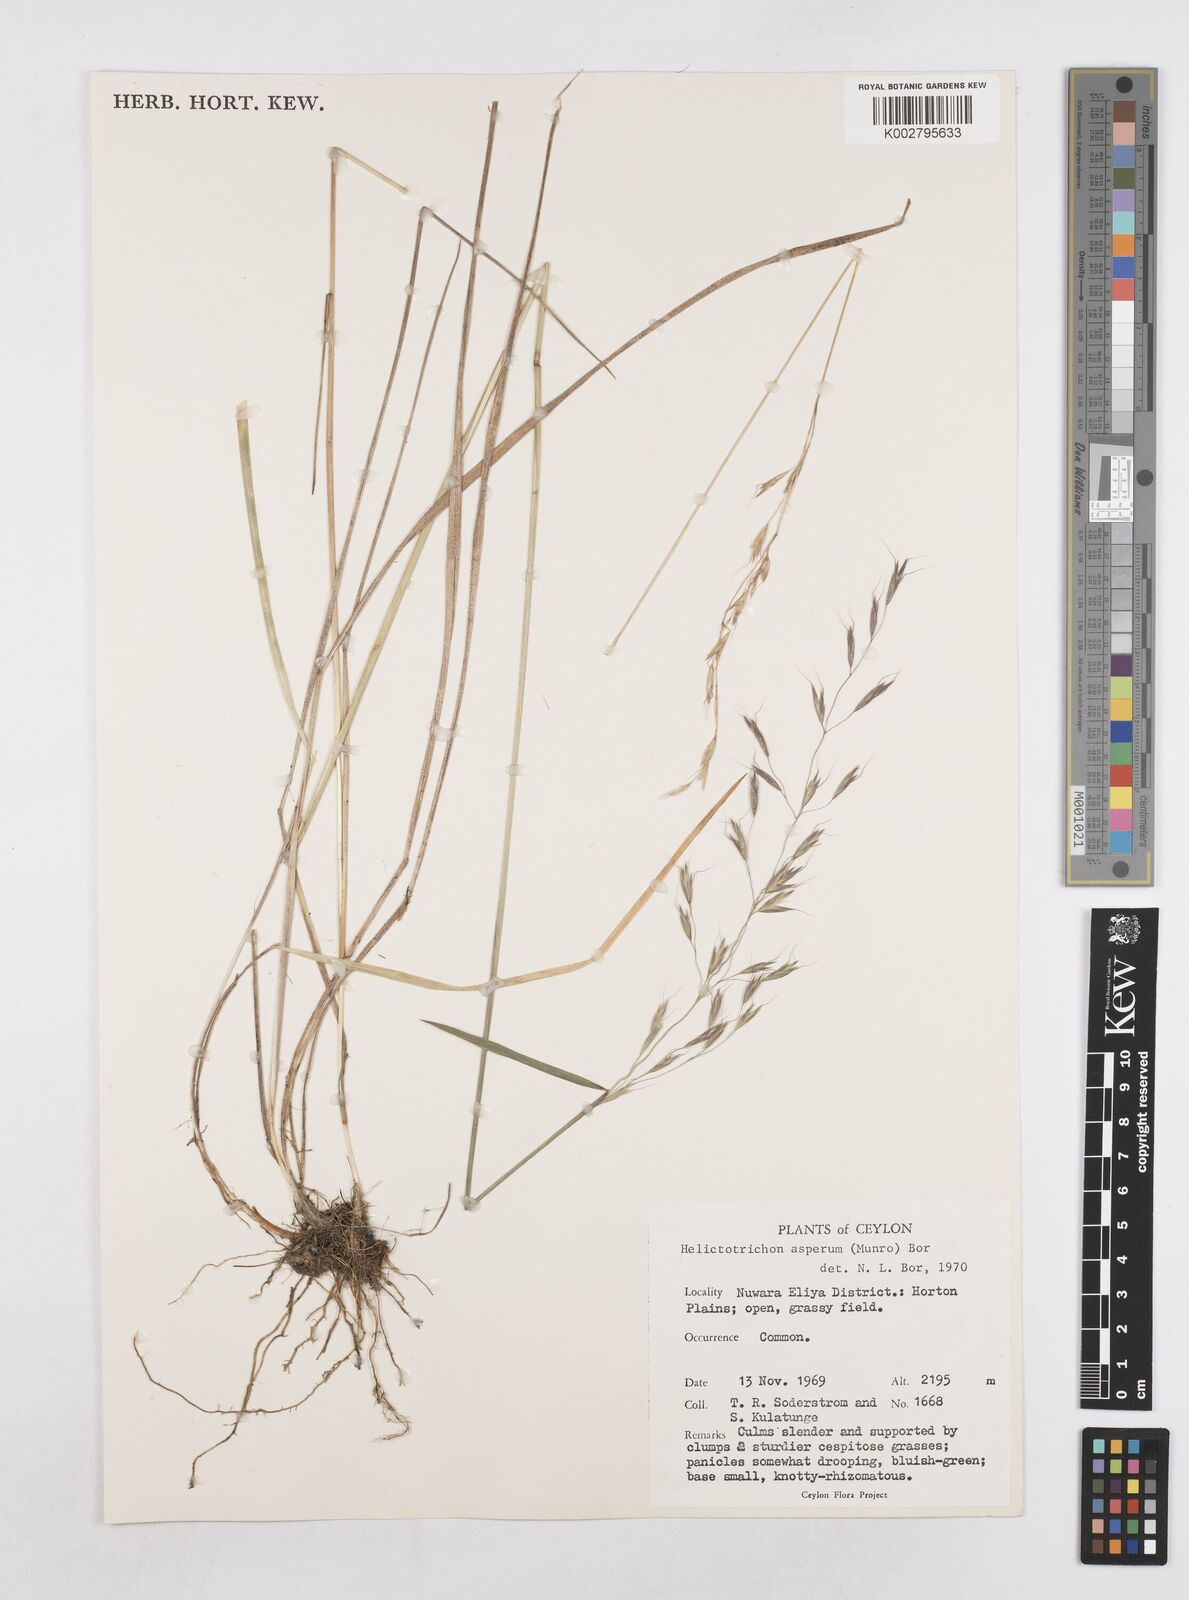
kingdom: Plantae
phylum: Tracheophyta
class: Liliopsida
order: Poales
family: Poaceae
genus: Trisetopsis
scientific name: Trisetopsis virescens
